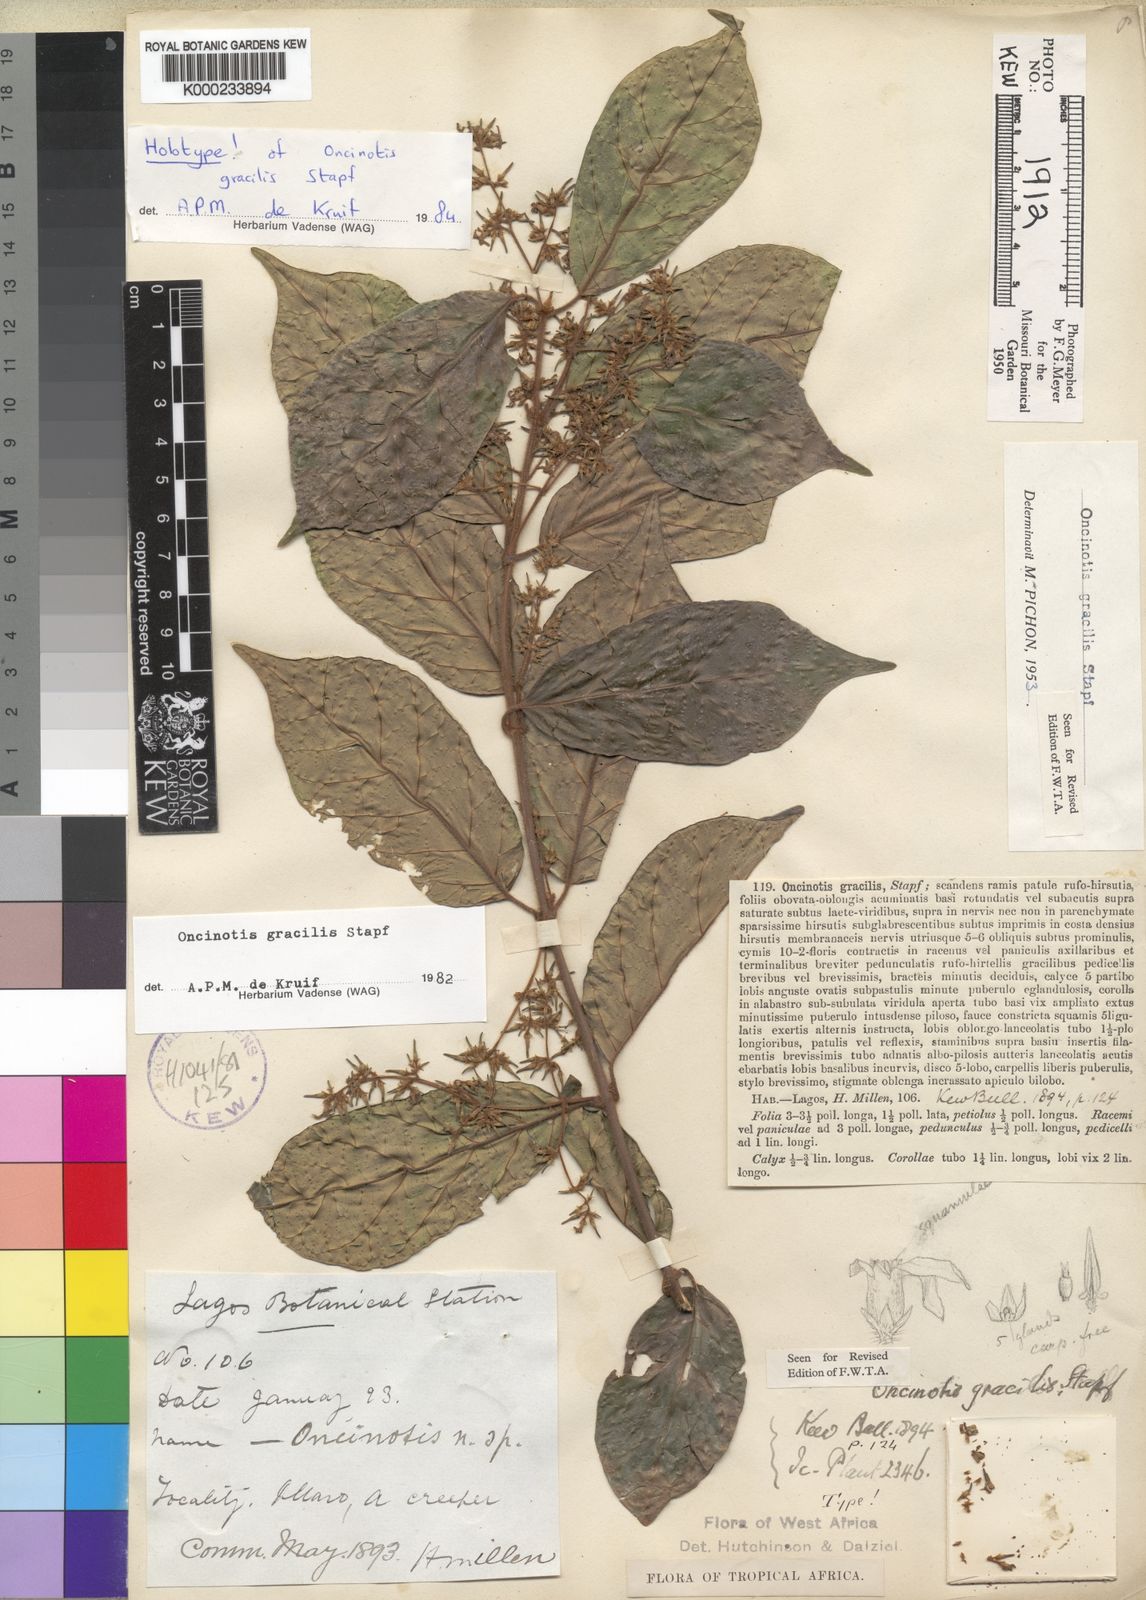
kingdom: Plantae
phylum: Tracheophyta
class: Magnoliopsida
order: Gentianales
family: Apocynaceae
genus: Oncinotis
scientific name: Oncinotis gracilis
